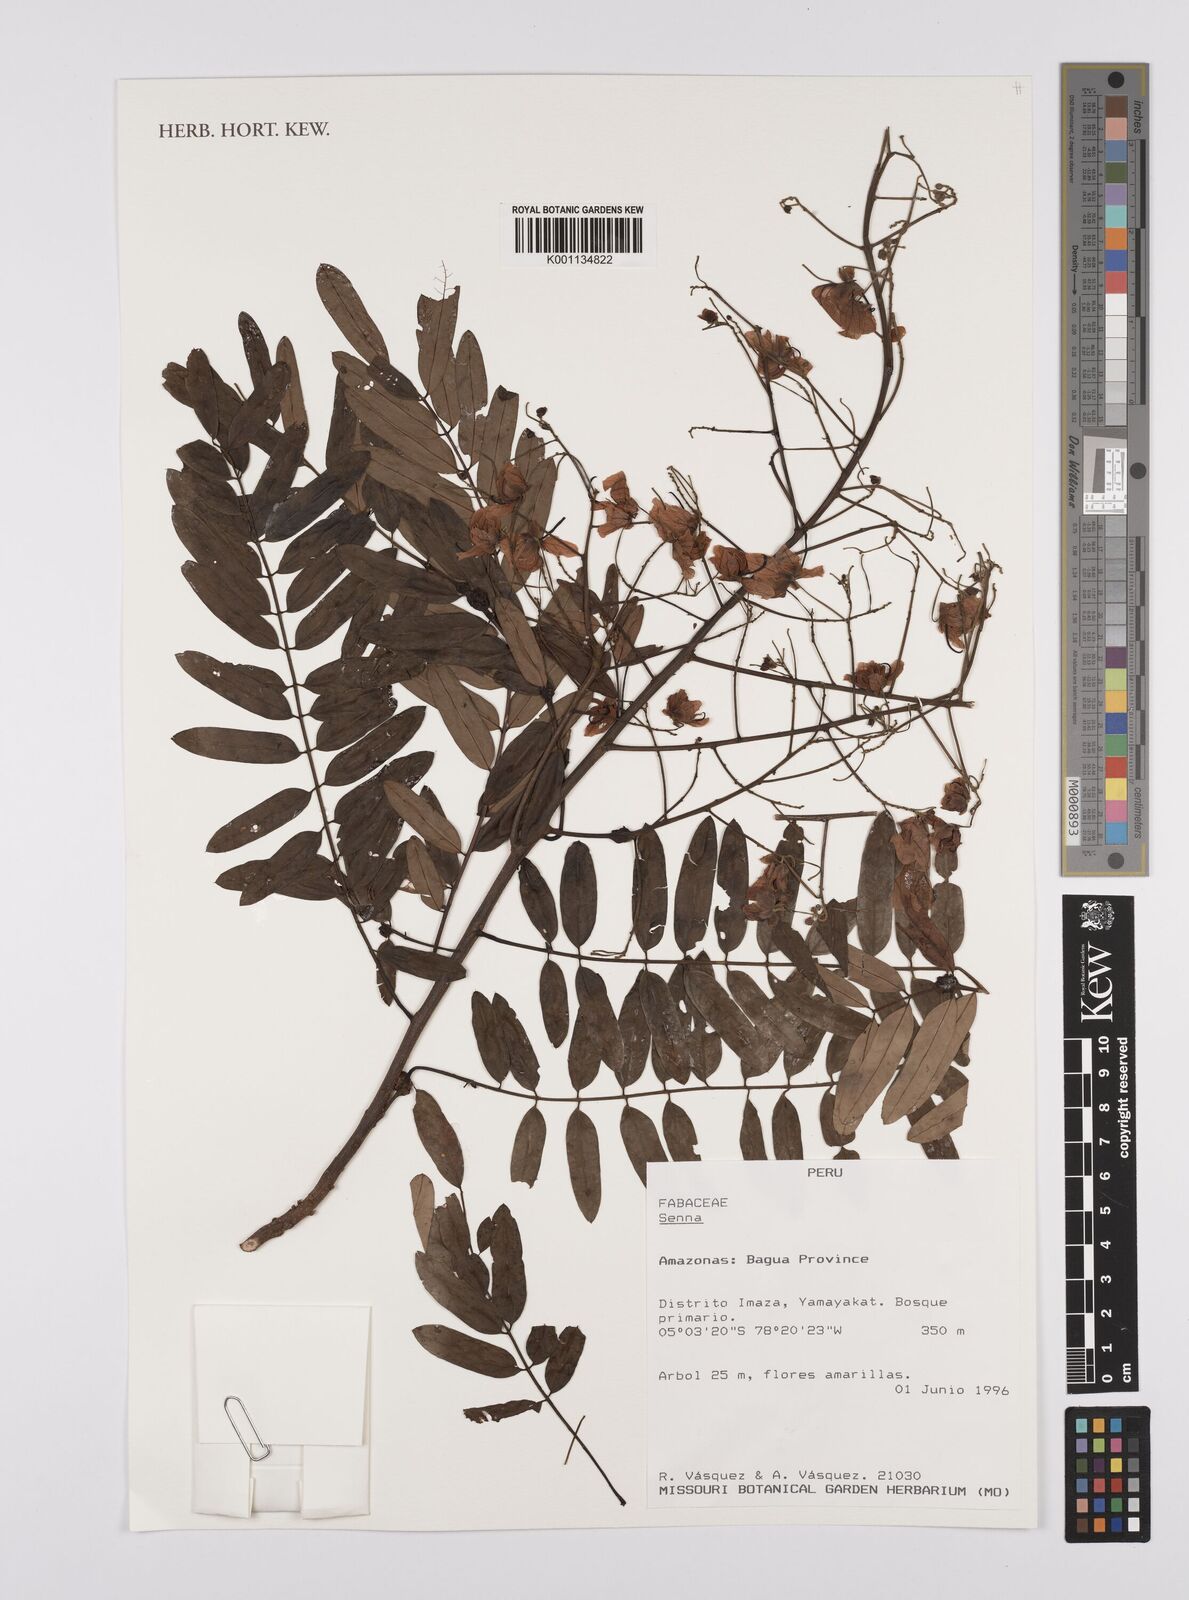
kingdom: Plantae
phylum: Tracheophyta
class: Magnoliopsida
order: Fabales
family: Fabaceae
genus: Senna
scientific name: Senna
